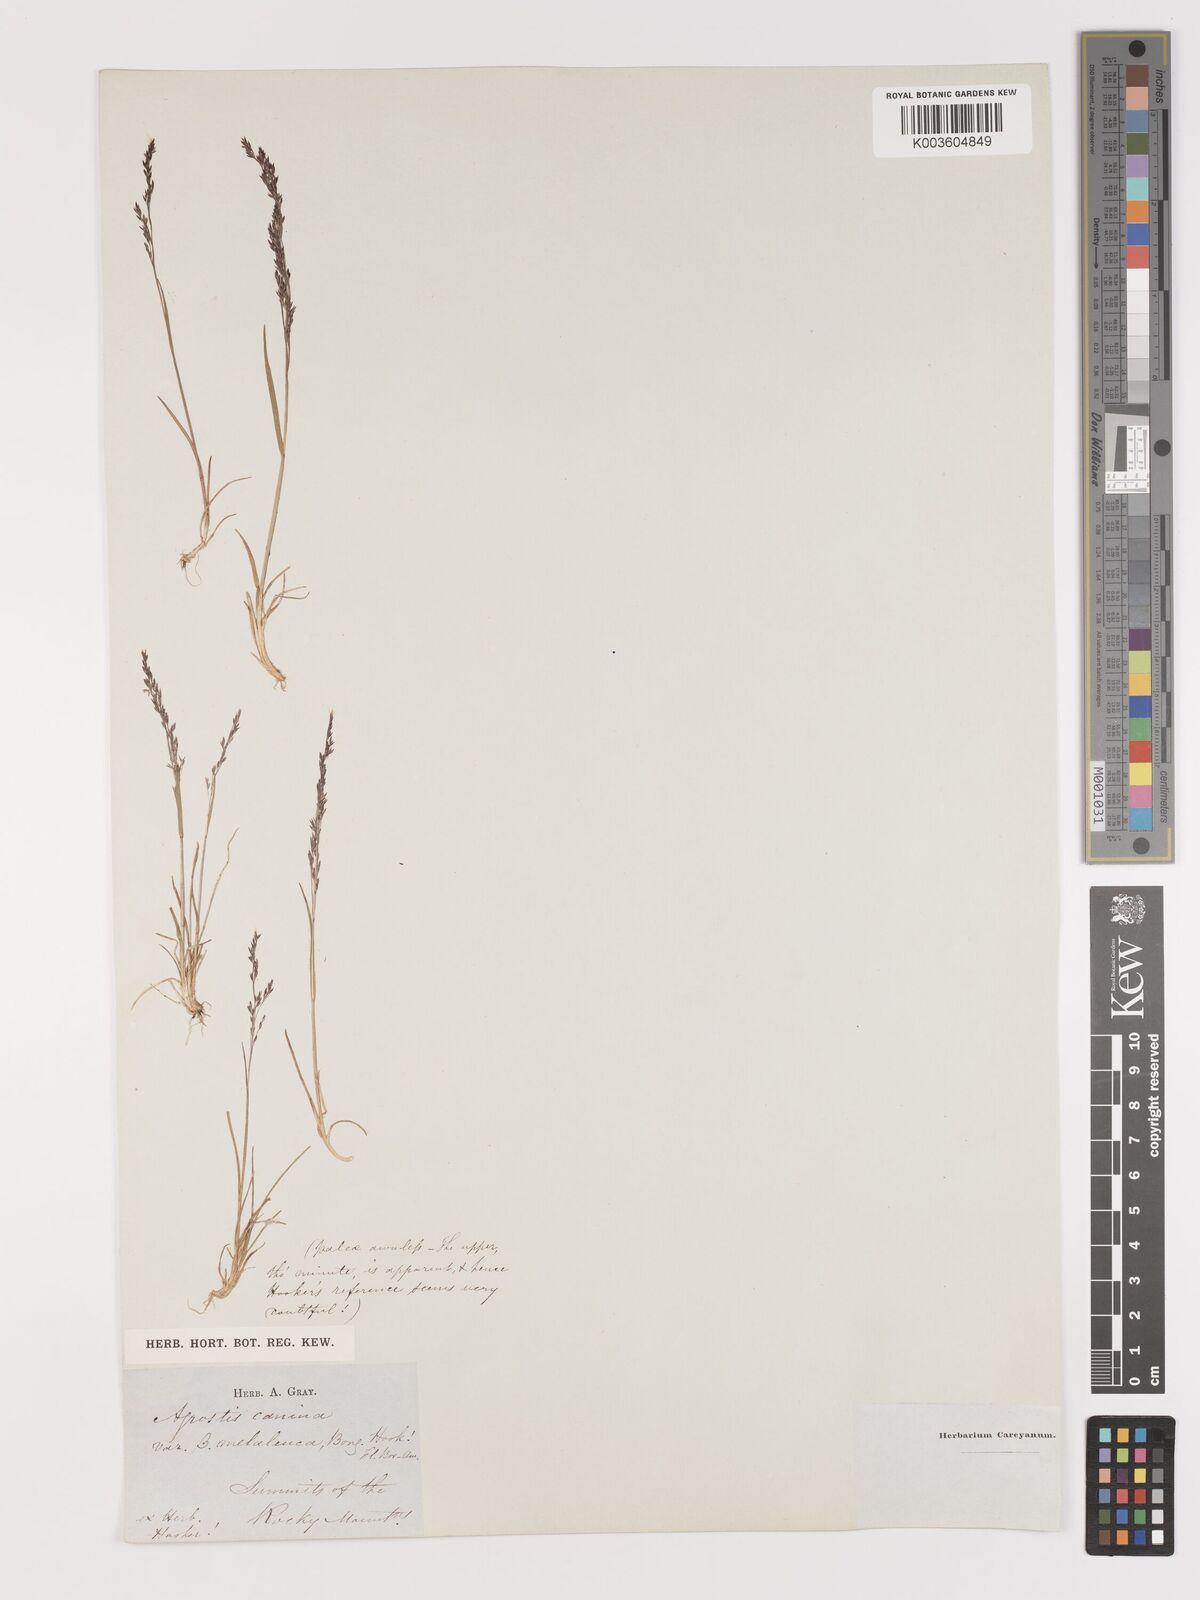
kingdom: Plantae
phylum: Tracheophyta
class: Liliopsida
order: Poales
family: Poaceae
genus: Agrostis
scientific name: Agrostis
